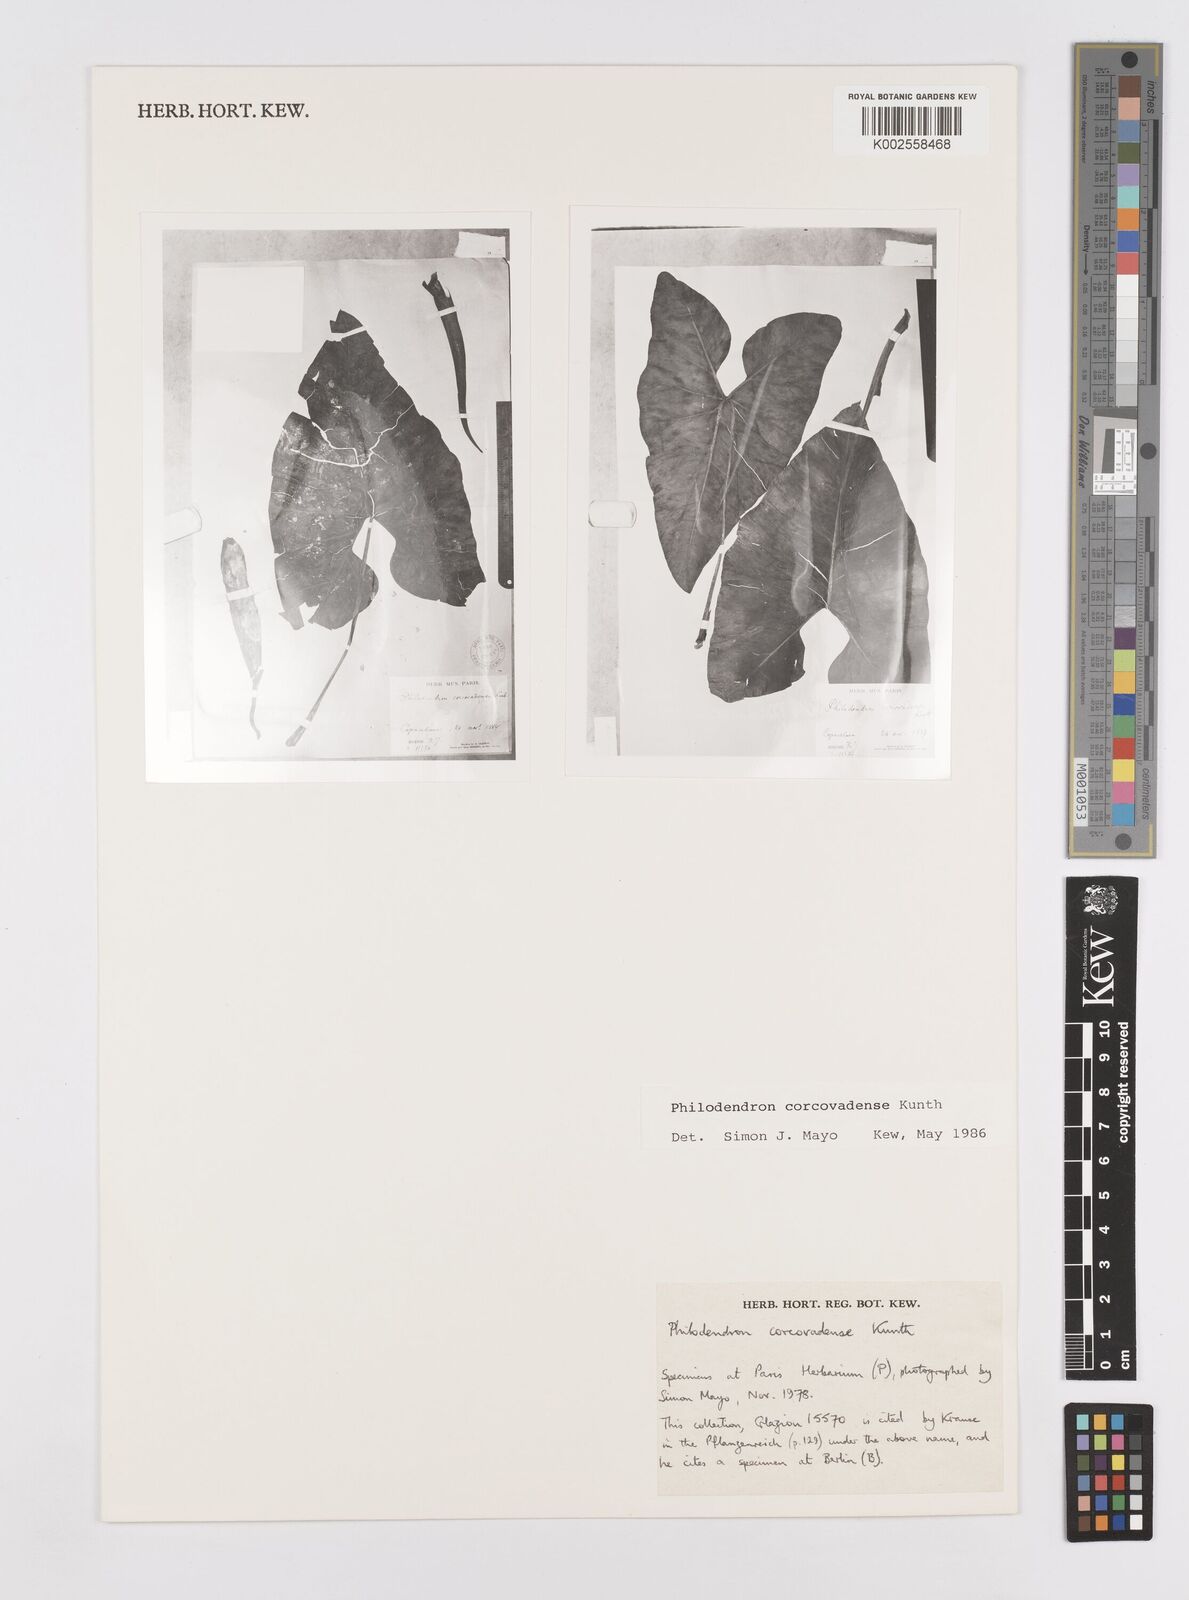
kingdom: Plantae
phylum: Tracheophyta
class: Liliopsida
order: Alismatales
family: Araceae
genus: Thaumatophyllum
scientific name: Thaumatophyllum corcovadense
